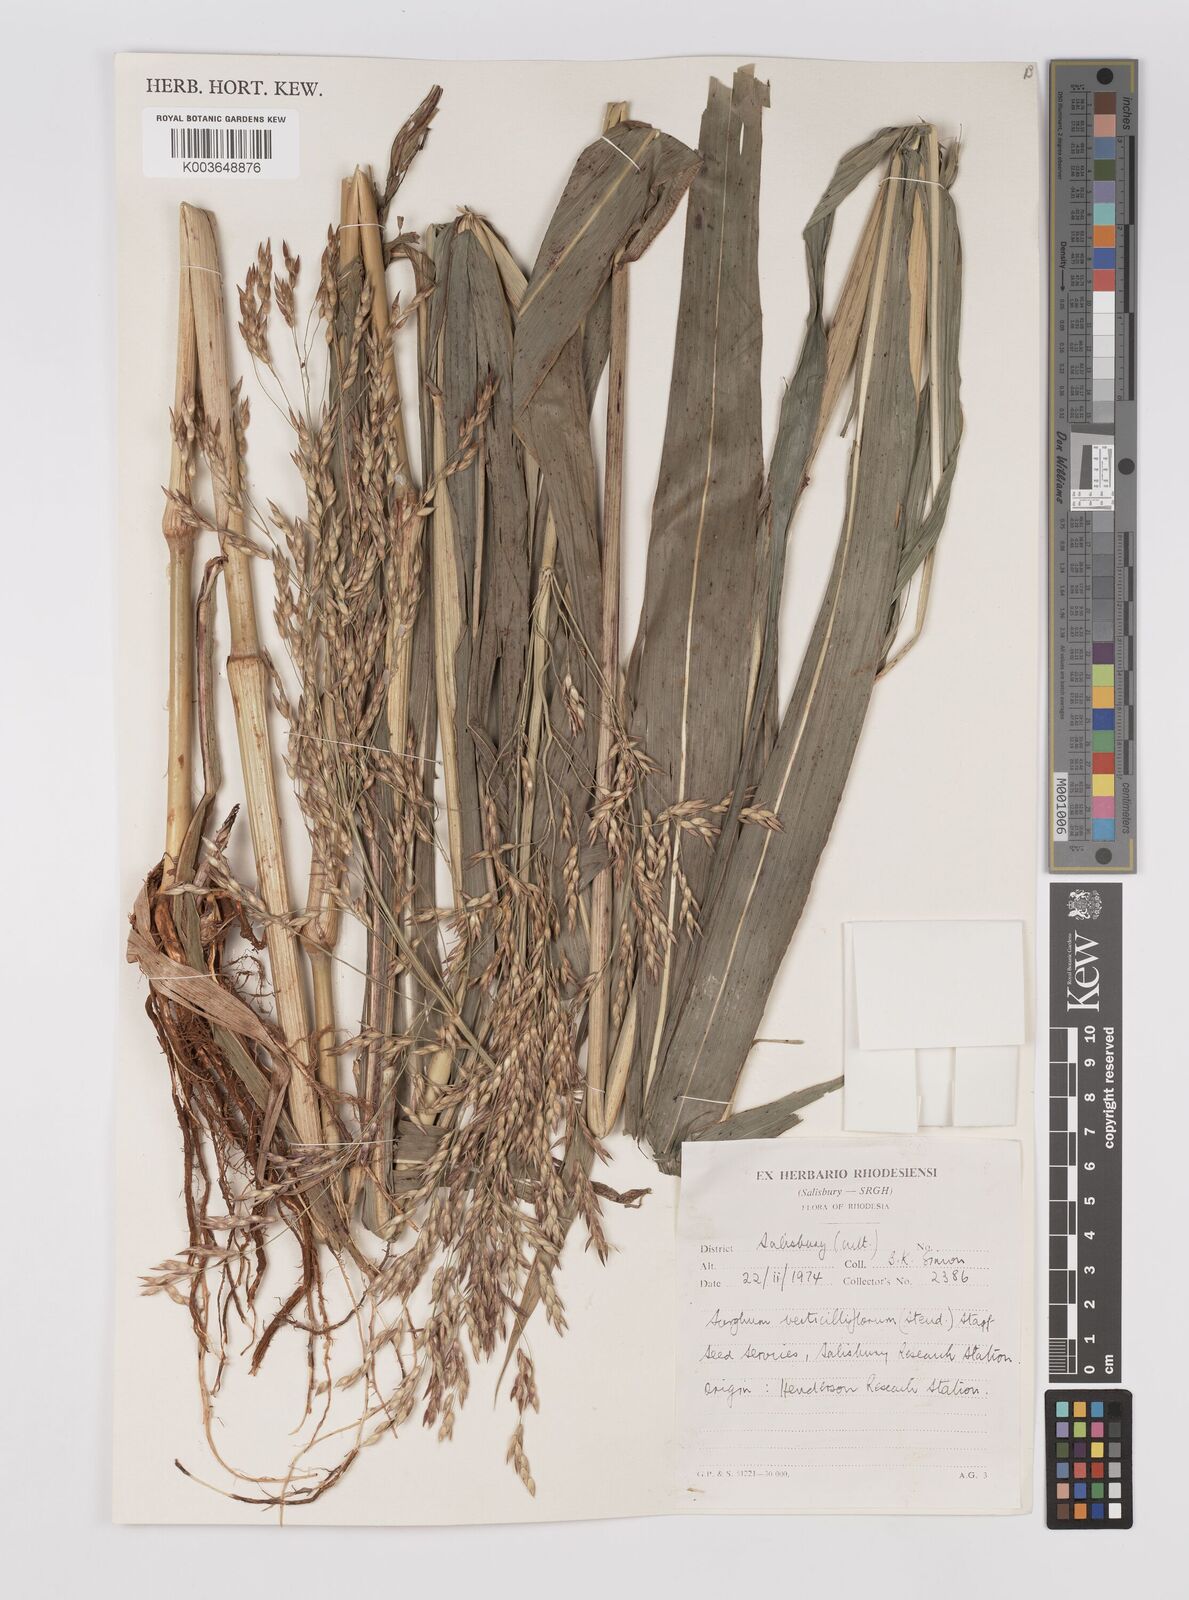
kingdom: Plantae
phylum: Tracheophyta
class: Liliopsida
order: Poales
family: Poaceae
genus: Sorghum
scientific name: Sorghum arundinaceum
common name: Sorghum
